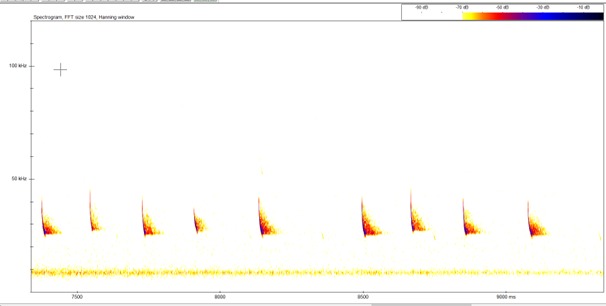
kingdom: Animalia
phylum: Chordata
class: Mammalia
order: Chiroptera
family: Vespertilionidae
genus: Eptesicus
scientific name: Eptesicus serotinus
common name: Sydflagermus
